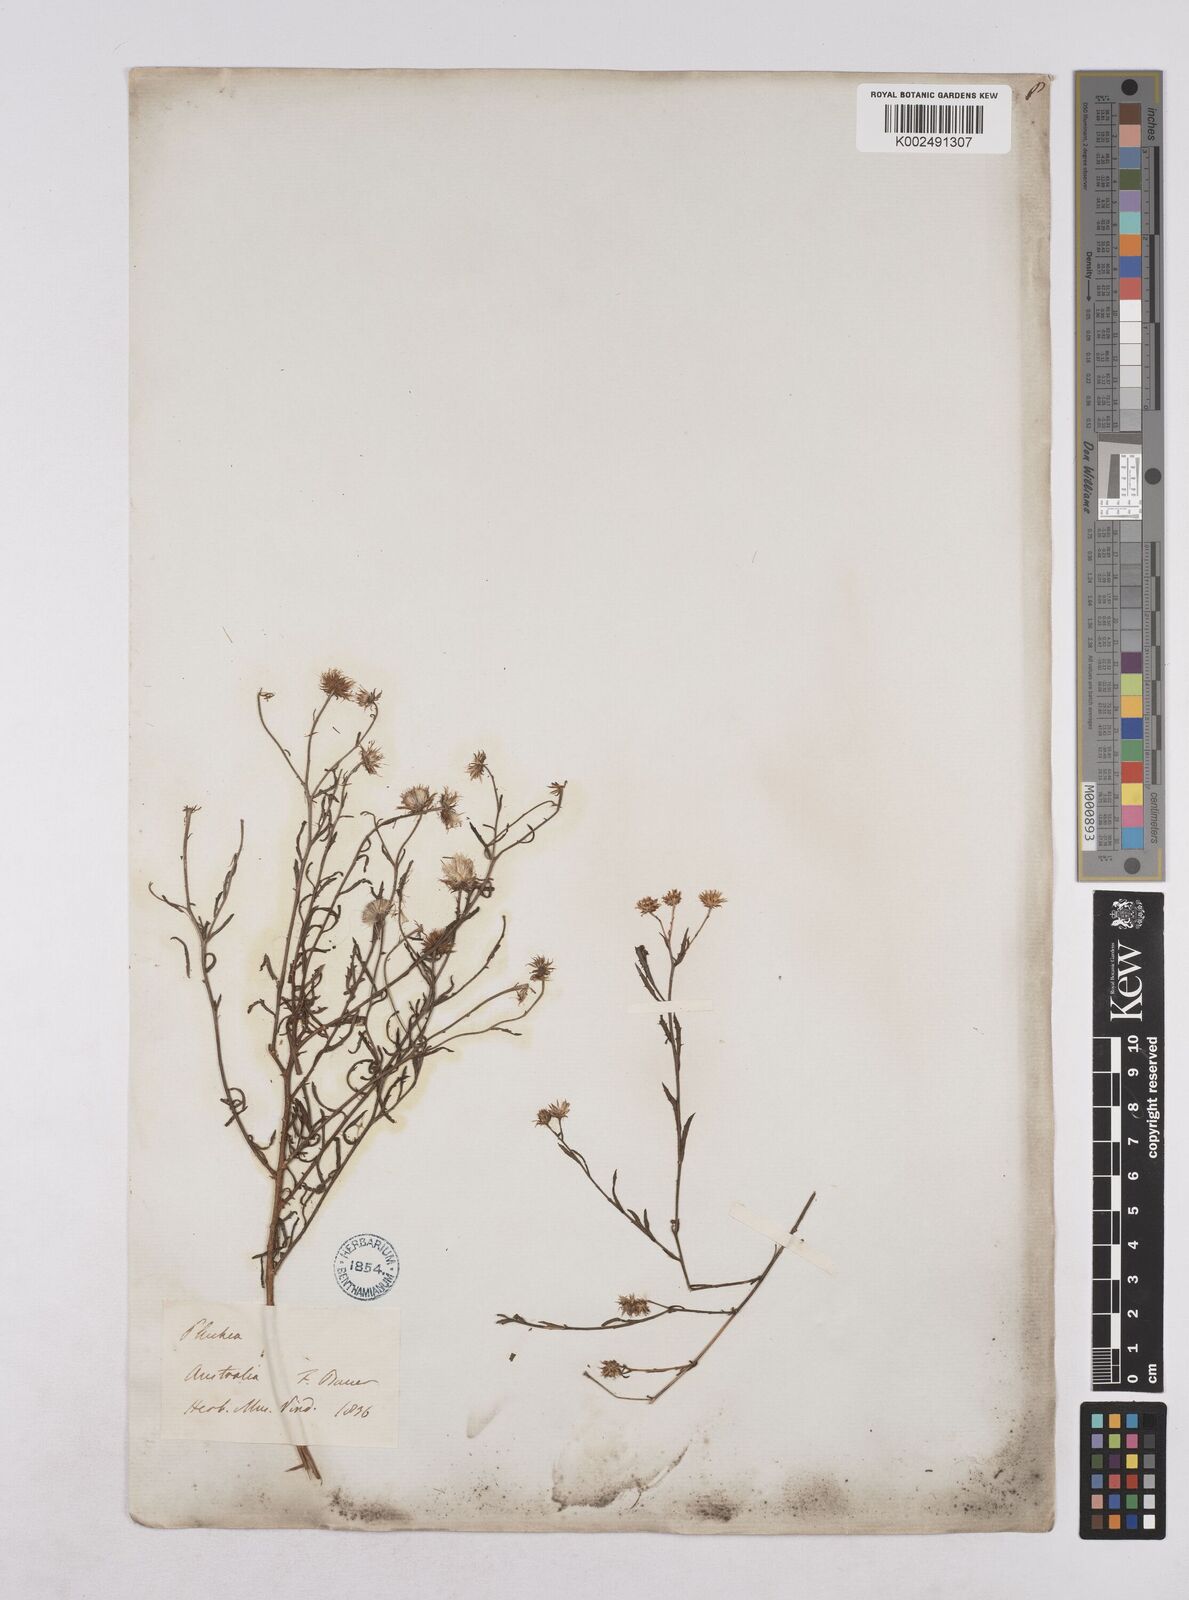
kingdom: Plantae
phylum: Tracheophyta
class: Magnoliopsida
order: Asterales
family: Asteraceae
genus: Pluchea
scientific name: Pluchea dentex
